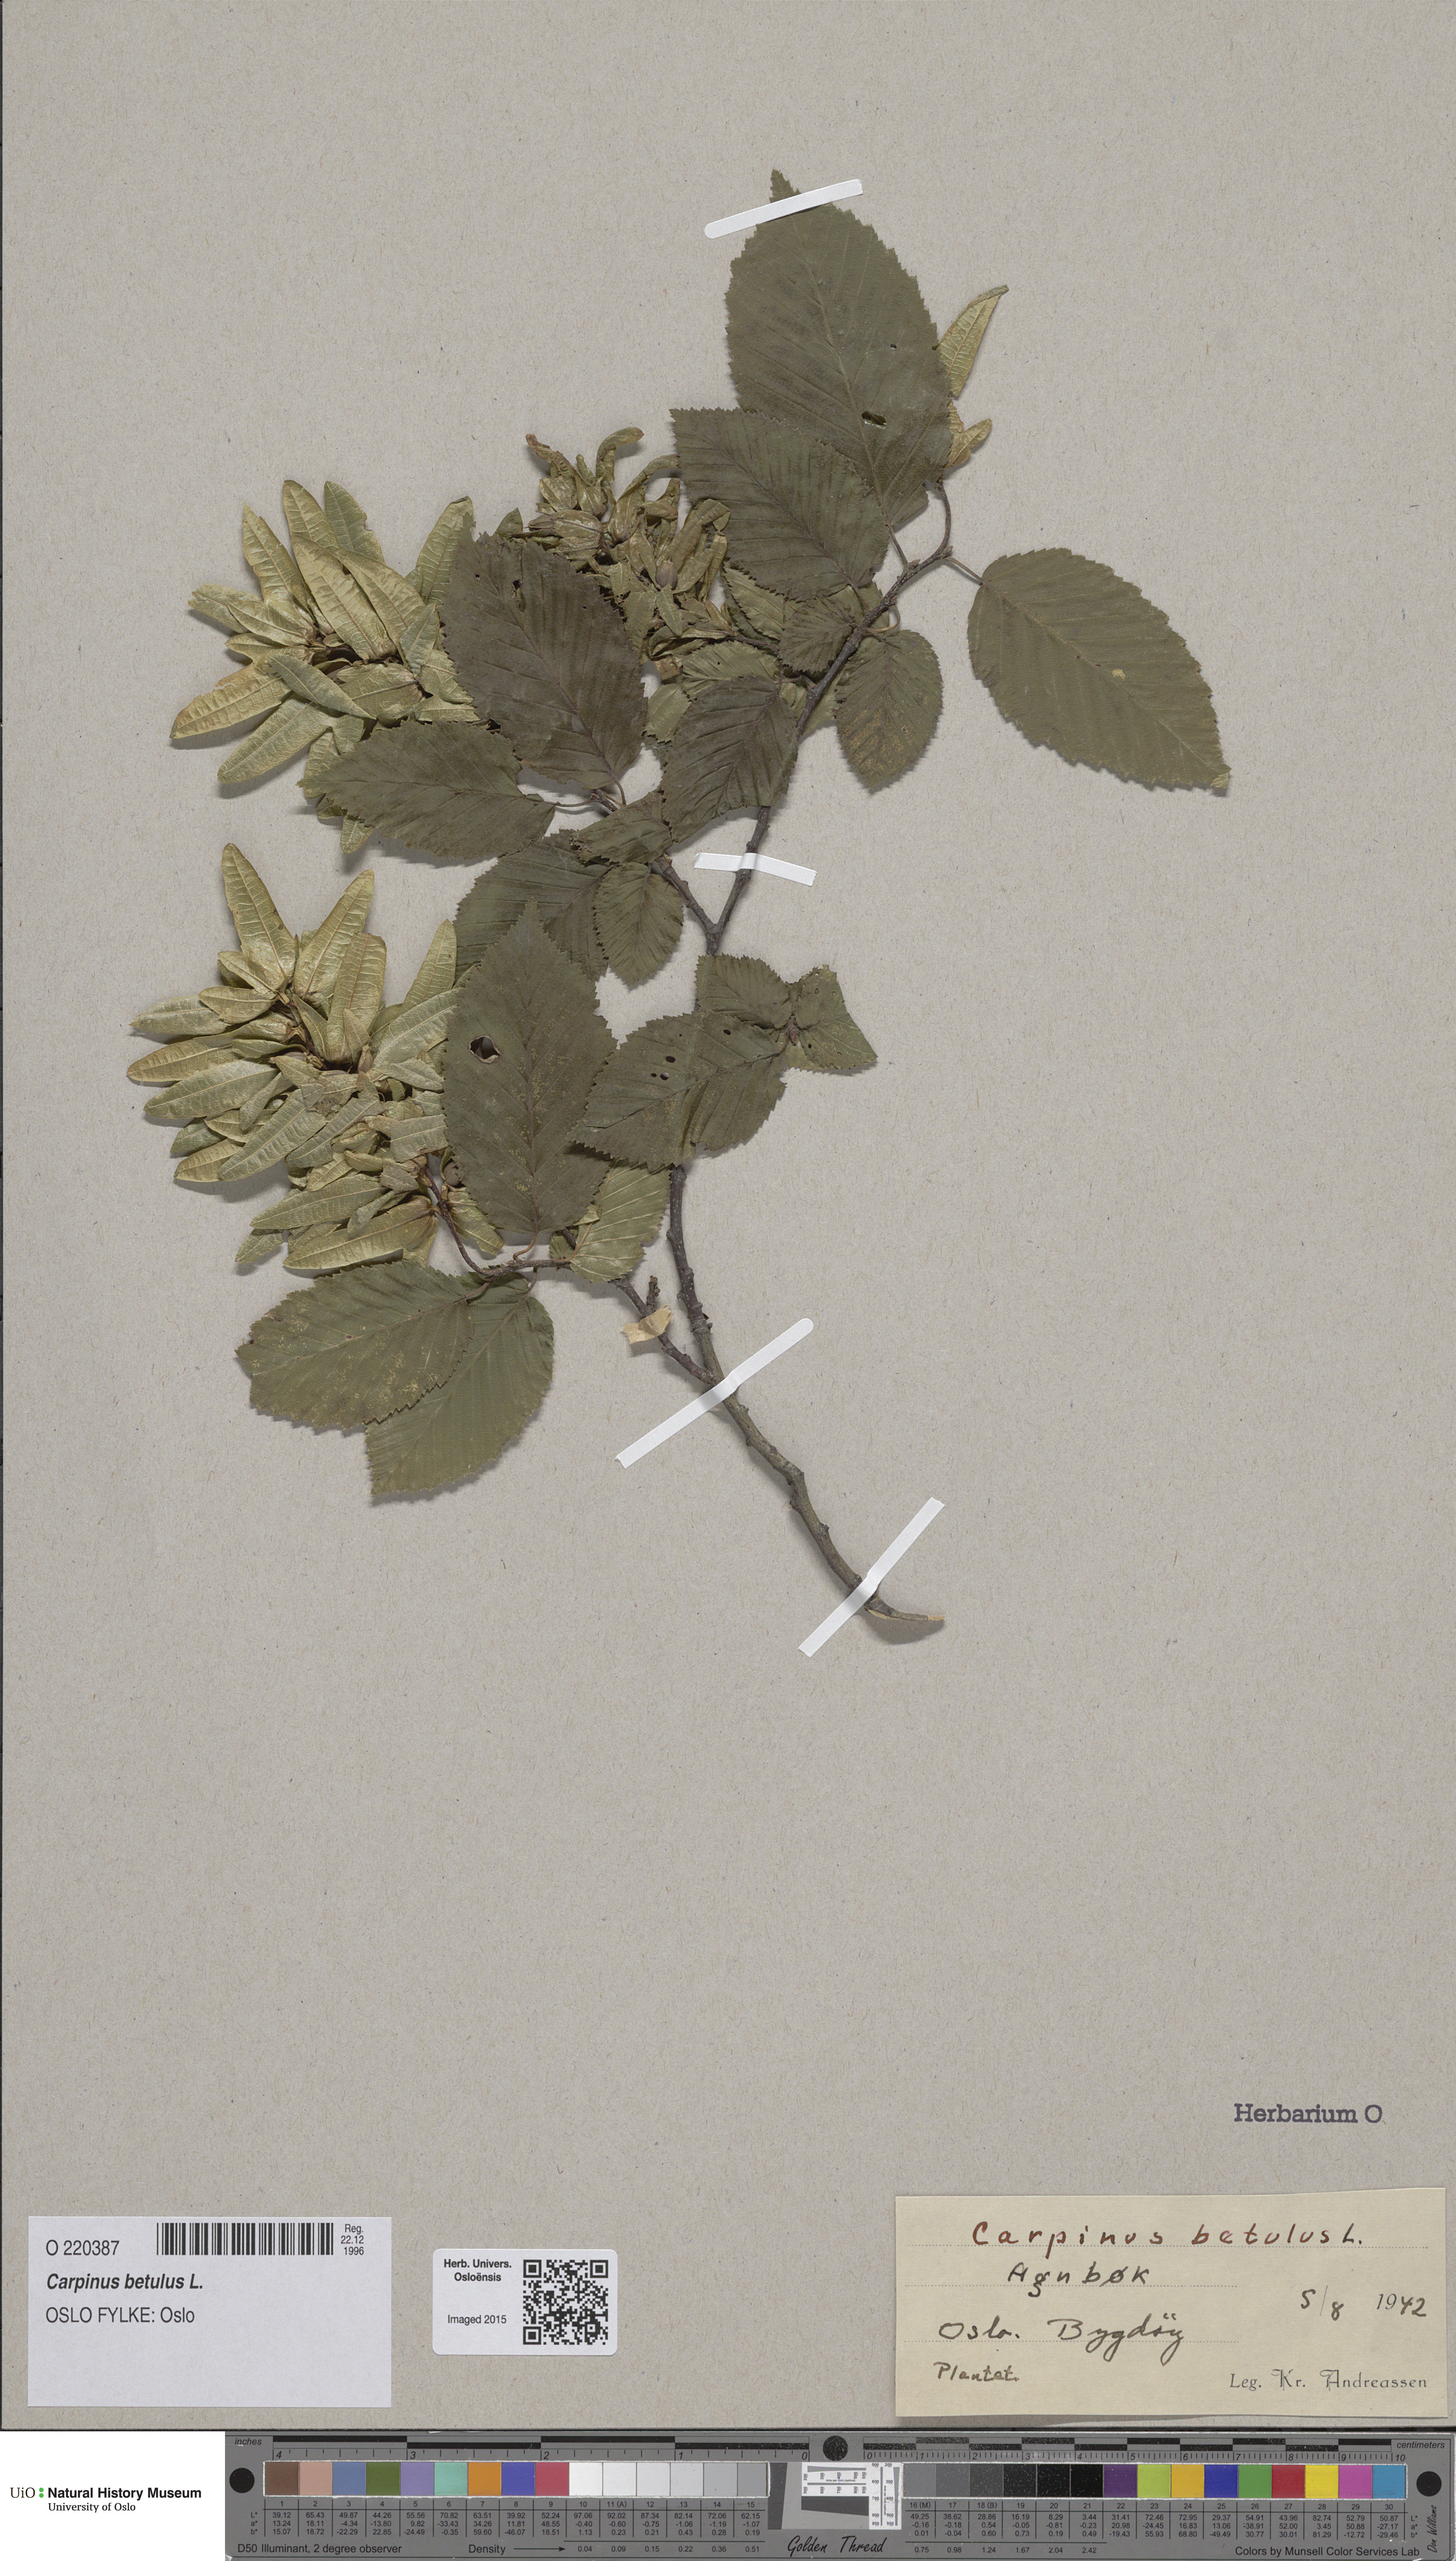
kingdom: Plantae
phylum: Tracheophyta
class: Magnoliopsida
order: Fagales
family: Betulaceae
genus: Carpinus
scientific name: Carpinus betulus
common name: Hornbeam
